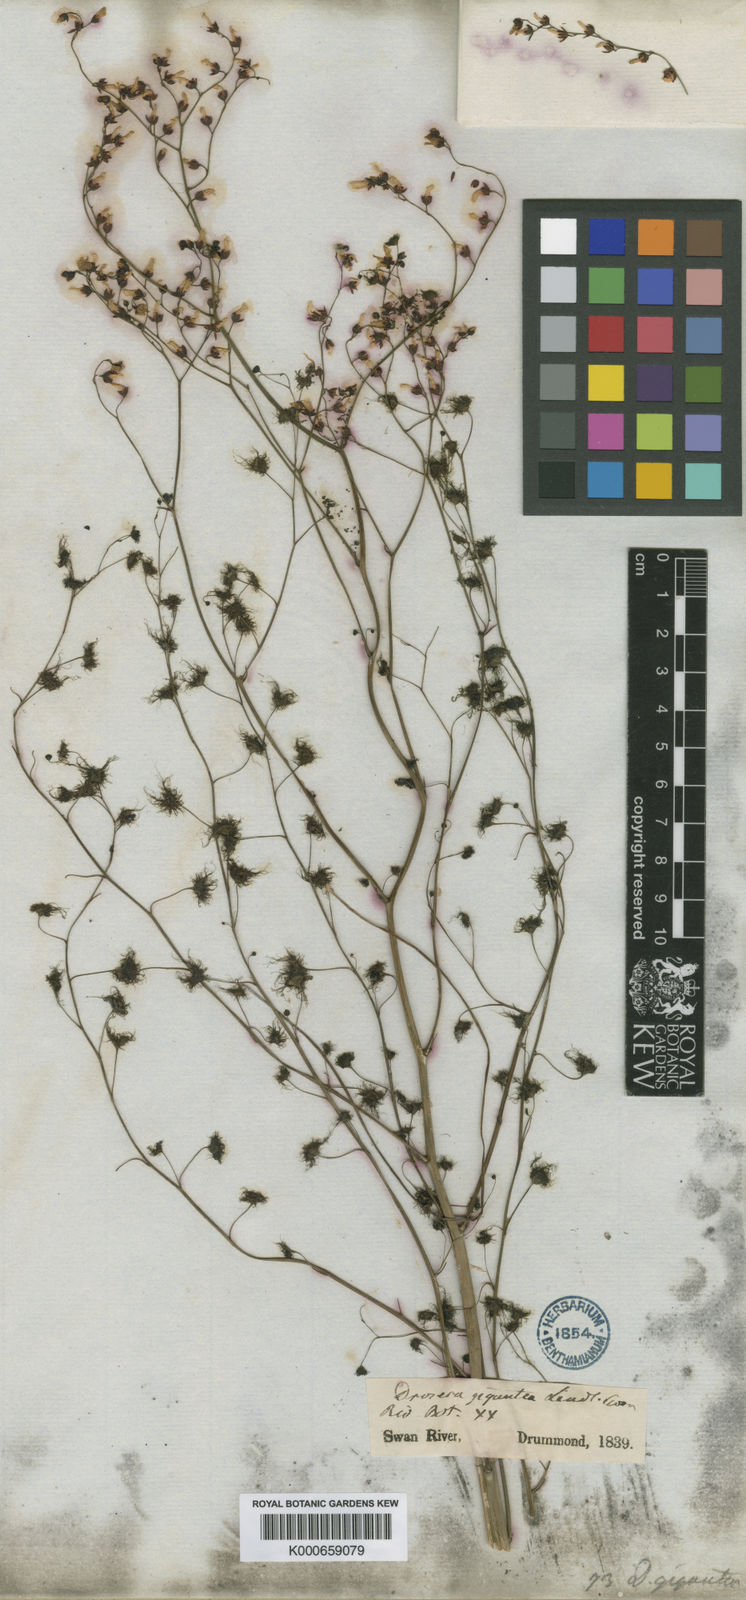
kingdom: Plantae
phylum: Tracheophyta
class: Magnoliopsida
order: Caryophyllales
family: Droseraceae
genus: Drosera
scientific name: Drosera gigantea
